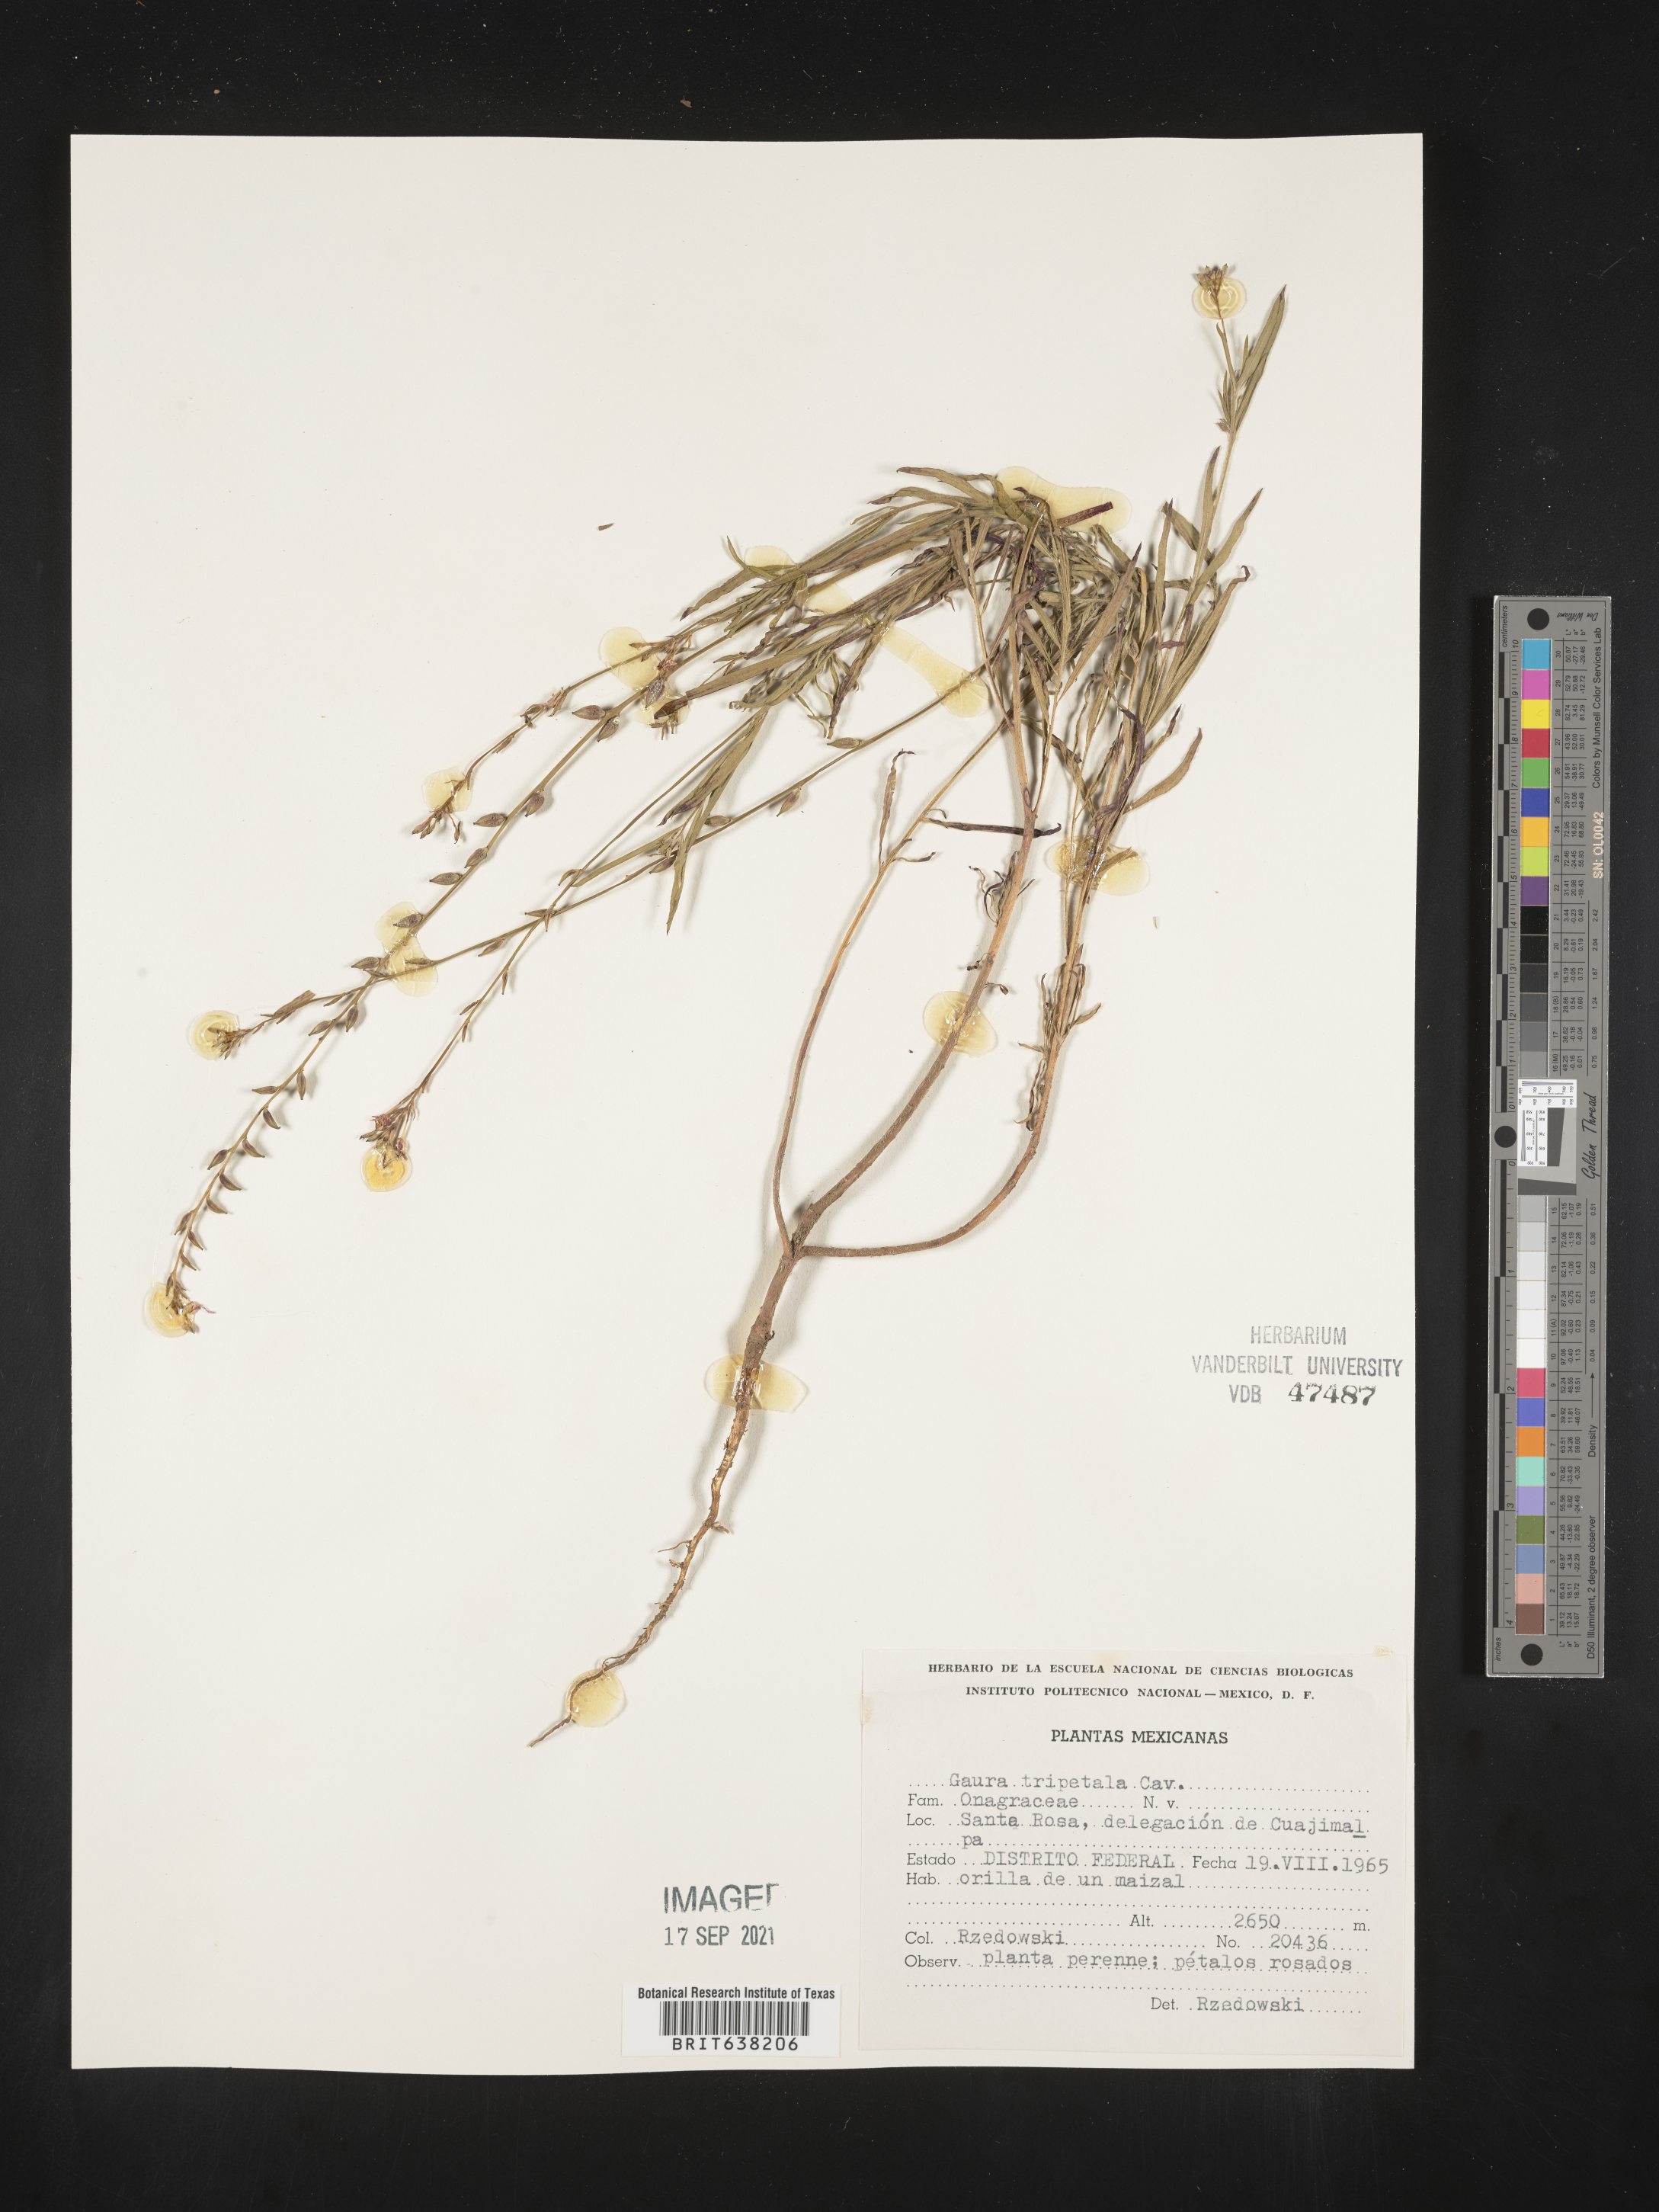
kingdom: Plantae
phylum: Tracheophyta
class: Magnoliopsida
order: Myrtales
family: Onagraceae
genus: Oenothera
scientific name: Oenothera
